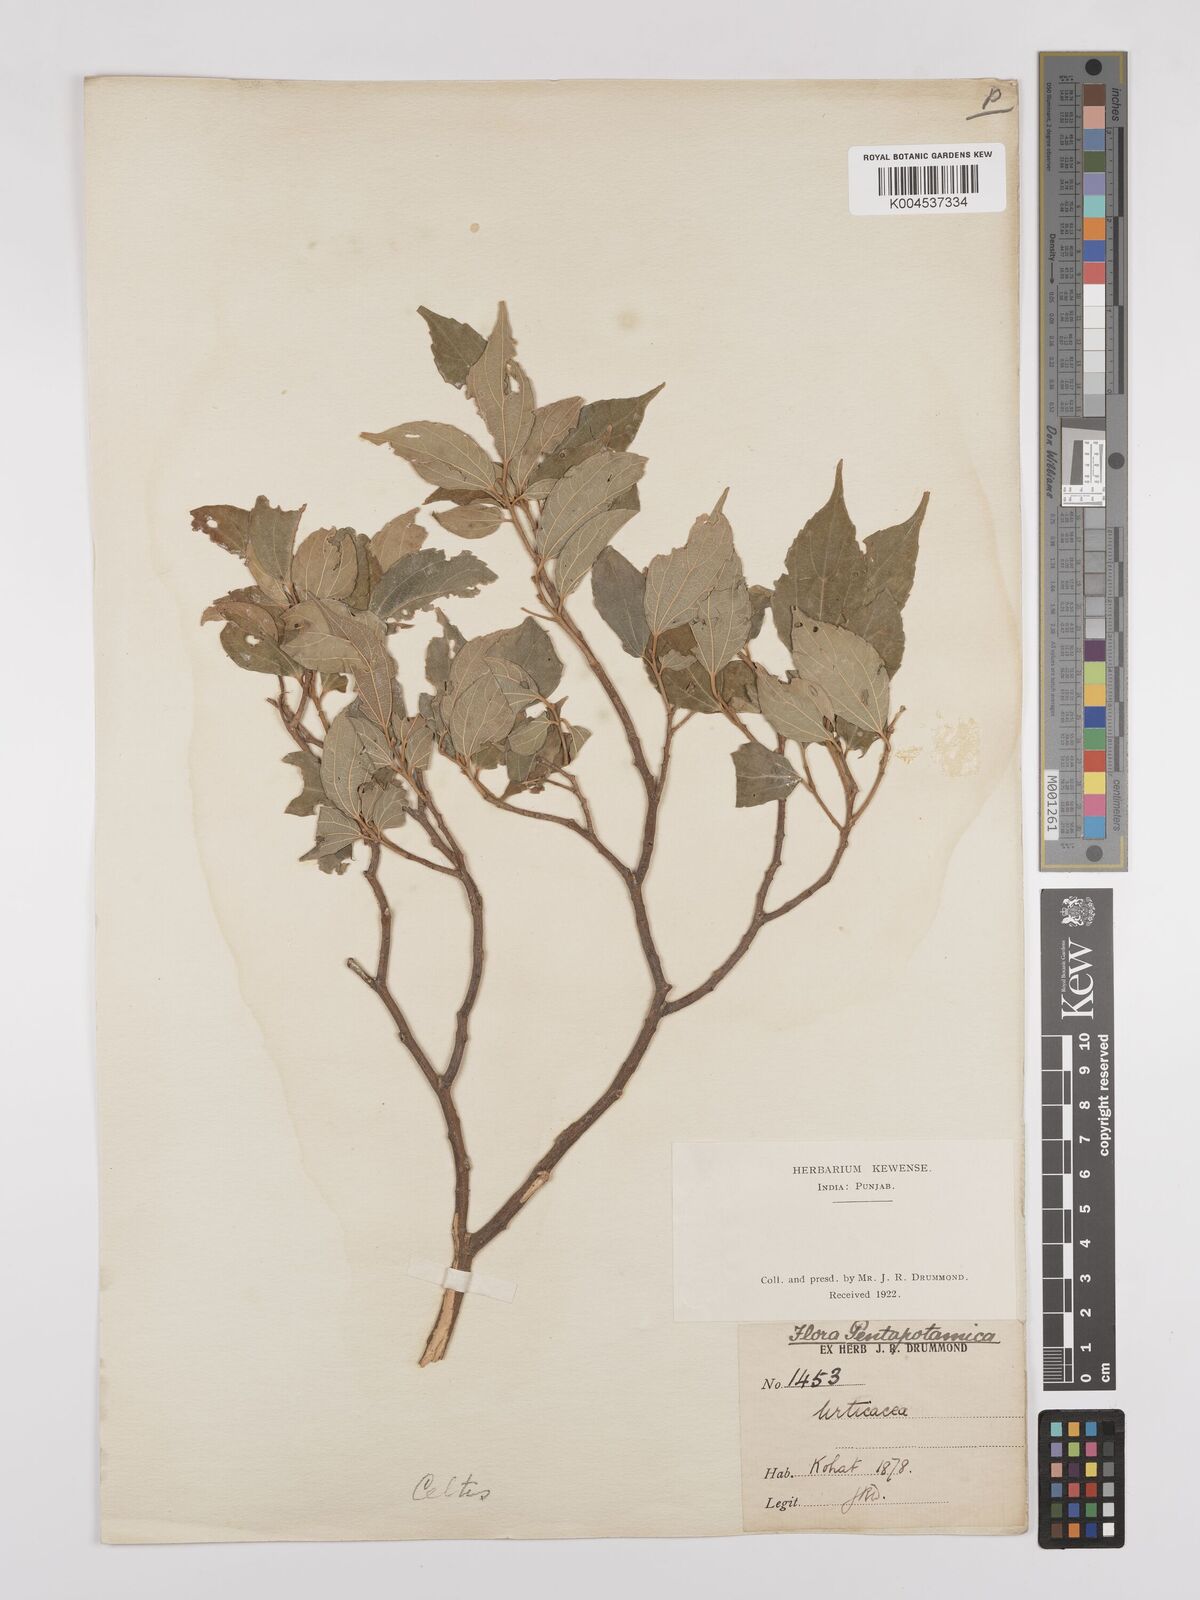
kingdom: Plantae
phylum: Tracheophyta
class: Magnoliopsida
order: Rosales
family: Cannabaceae
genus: Celtis
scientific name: Celtis
